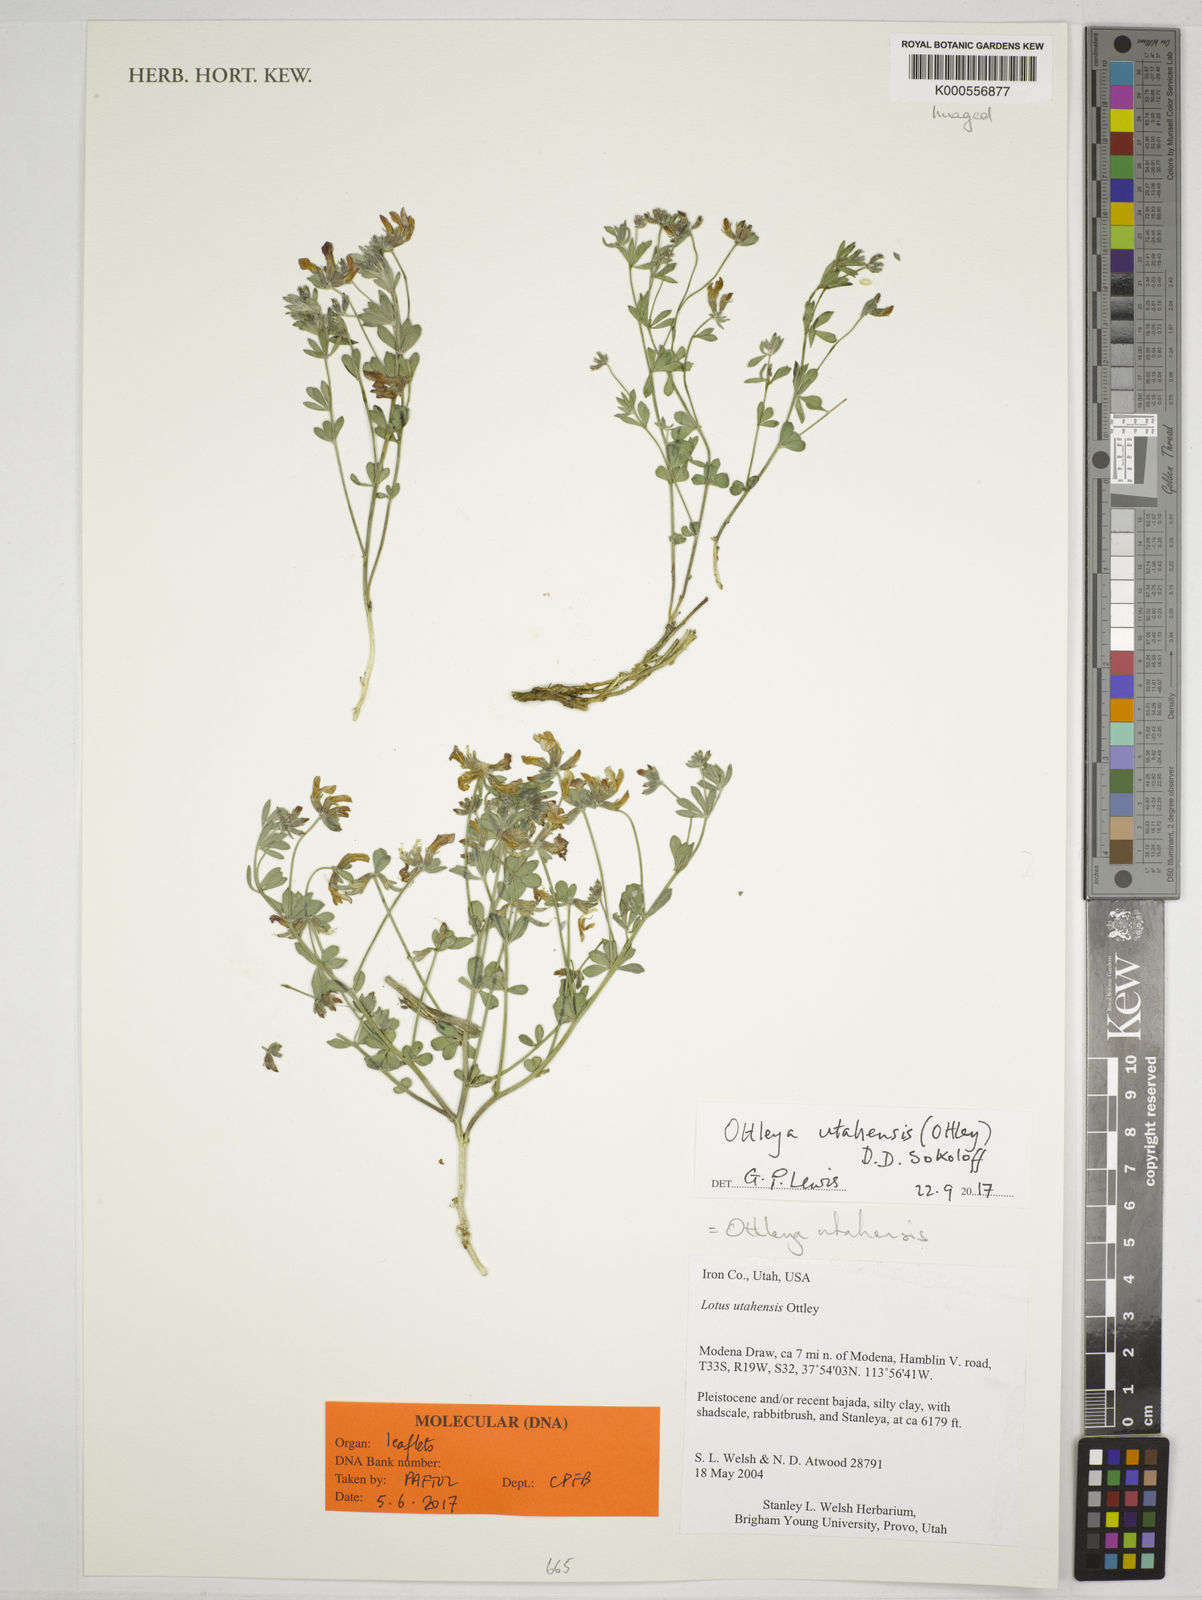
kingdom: Plantae
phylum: Tracheophyta
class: Magnoliopsida
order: Fabales
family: Fabaceae
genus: Acmispon
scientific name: Acmispon utahensis
